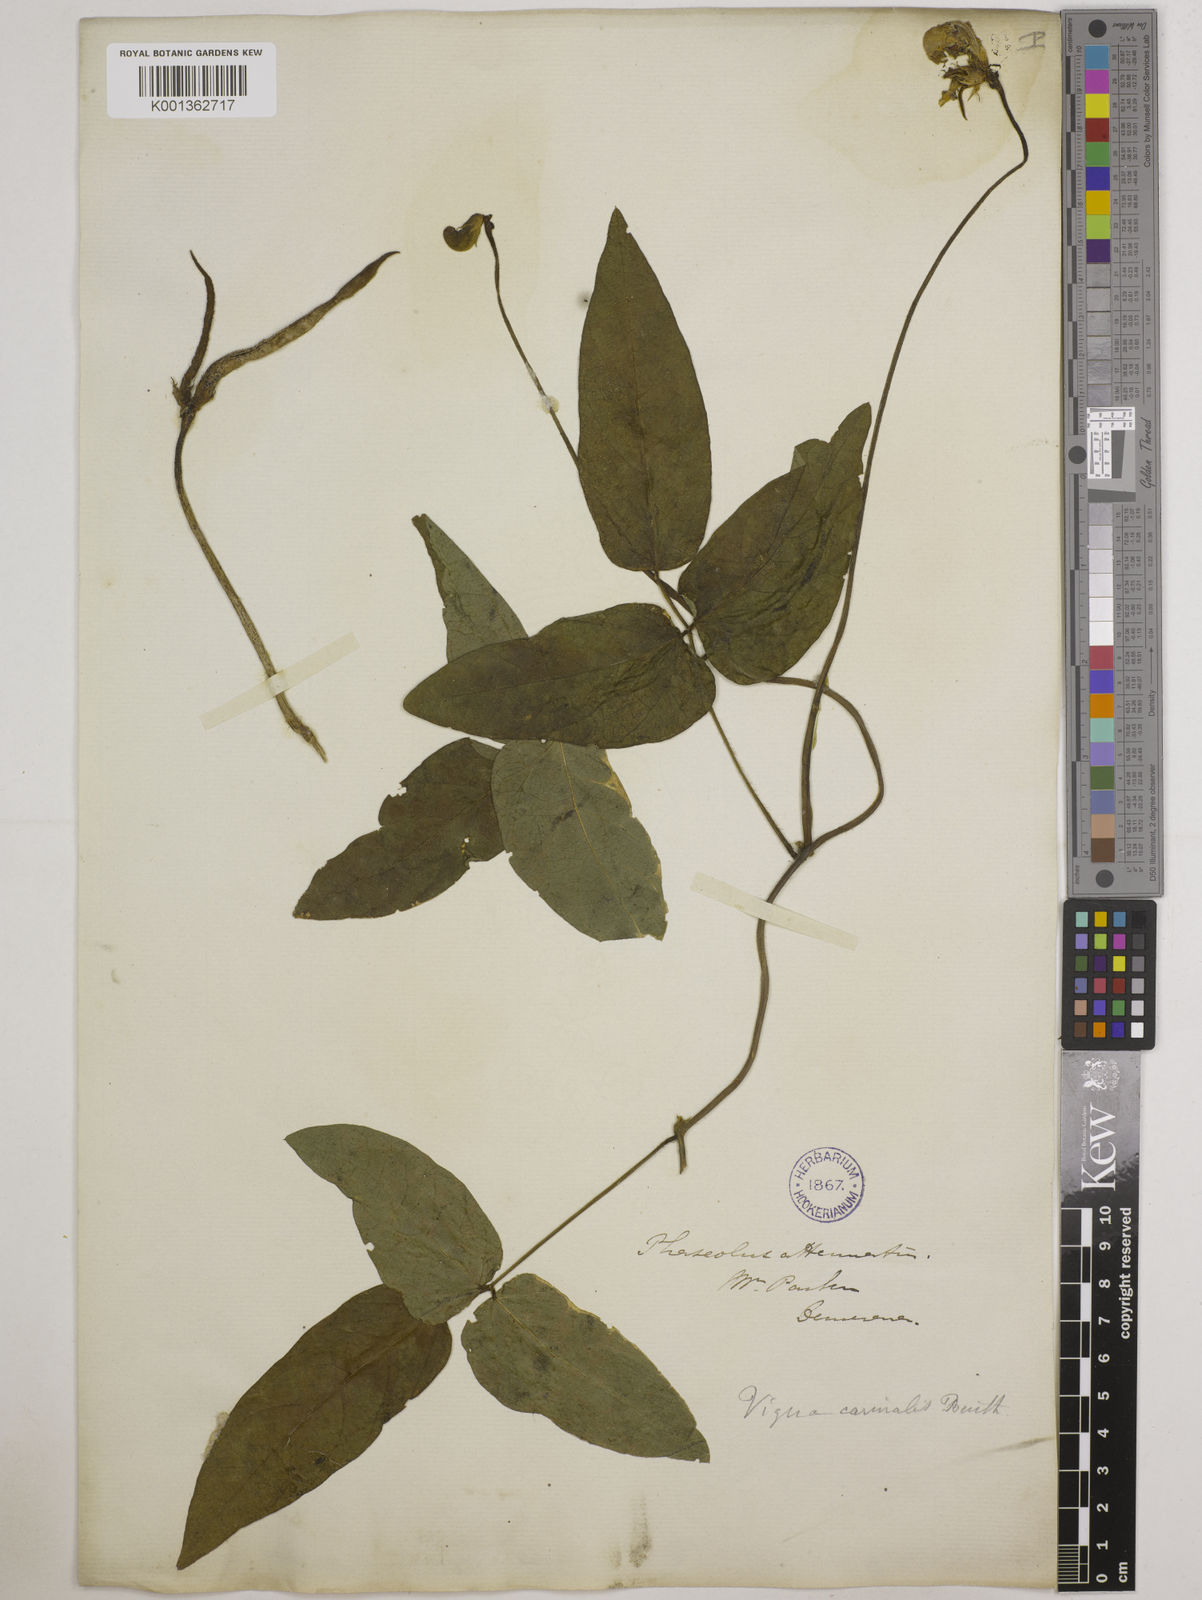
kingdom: Plantae
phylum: Tracheophyta
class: Magnoliopsida
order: Fabales
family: Fabaceae
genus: Vigna
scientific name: Vigna vexillata
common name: Zombi pea
